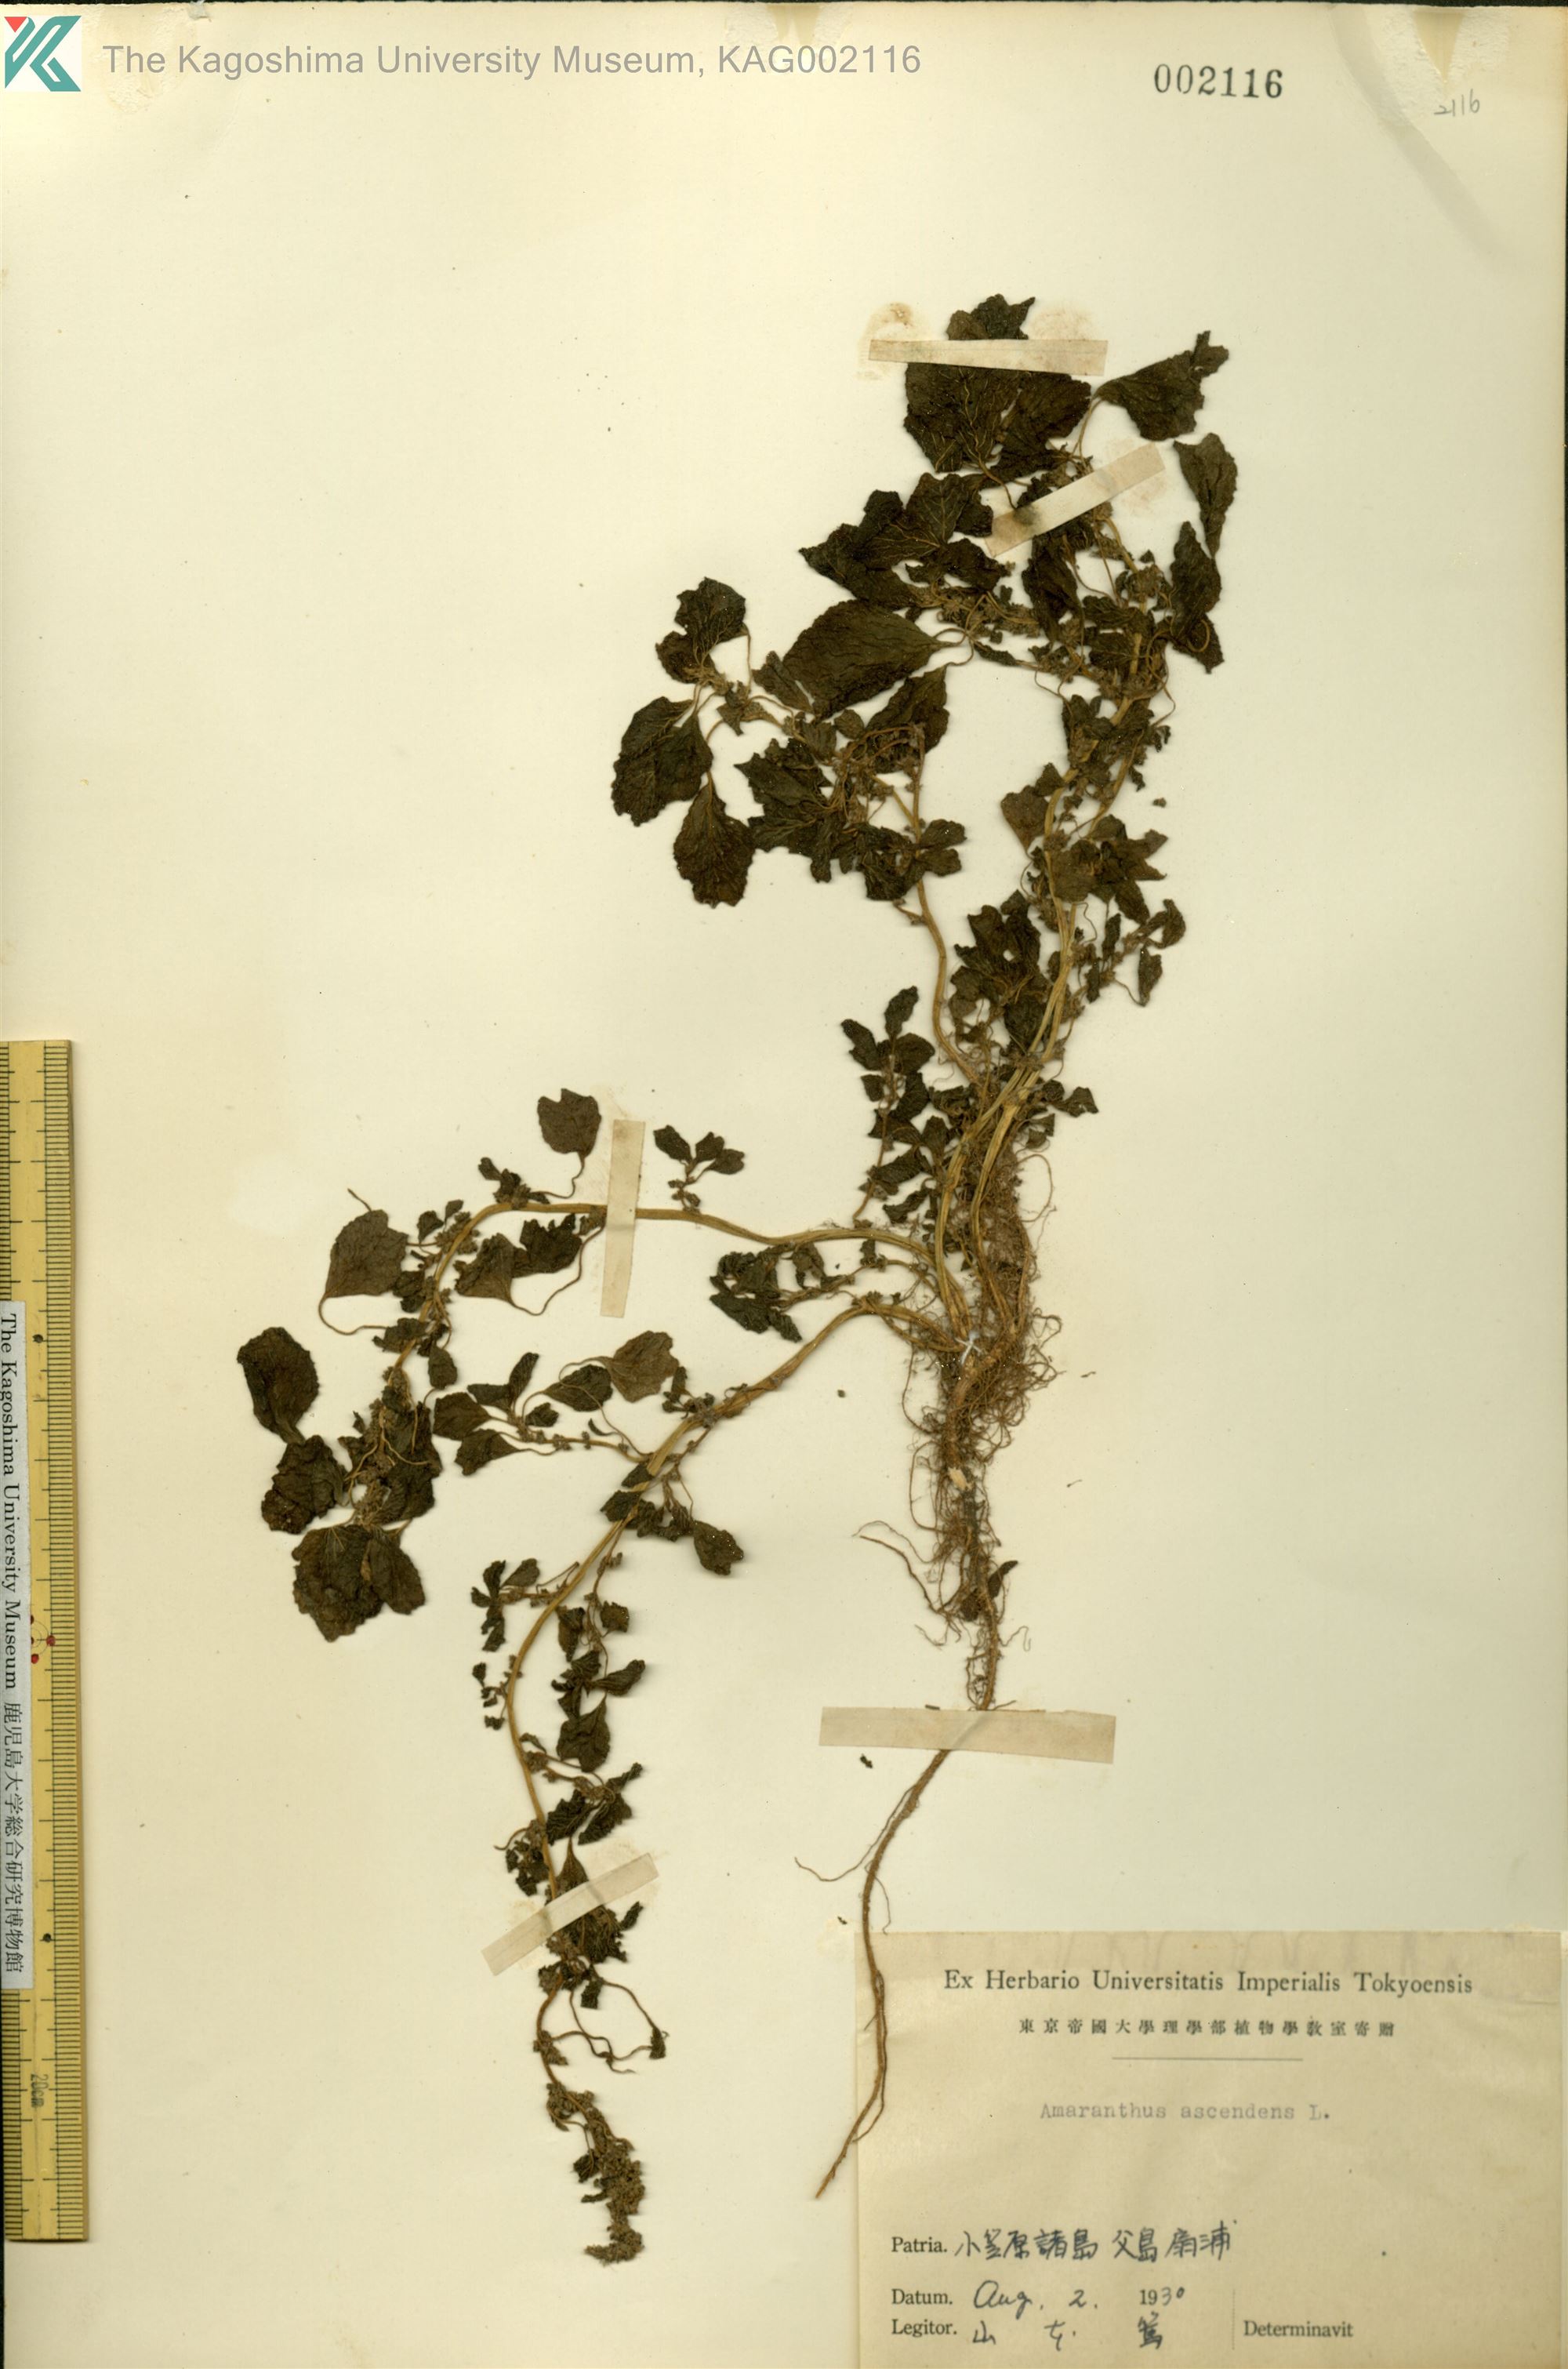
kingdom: Plantae
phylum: Tracheophyta
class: Magnoliopsida
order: Caryophyllales
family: Amaranthaceae
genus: Amaranthus
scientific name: Amaranthus blitum
